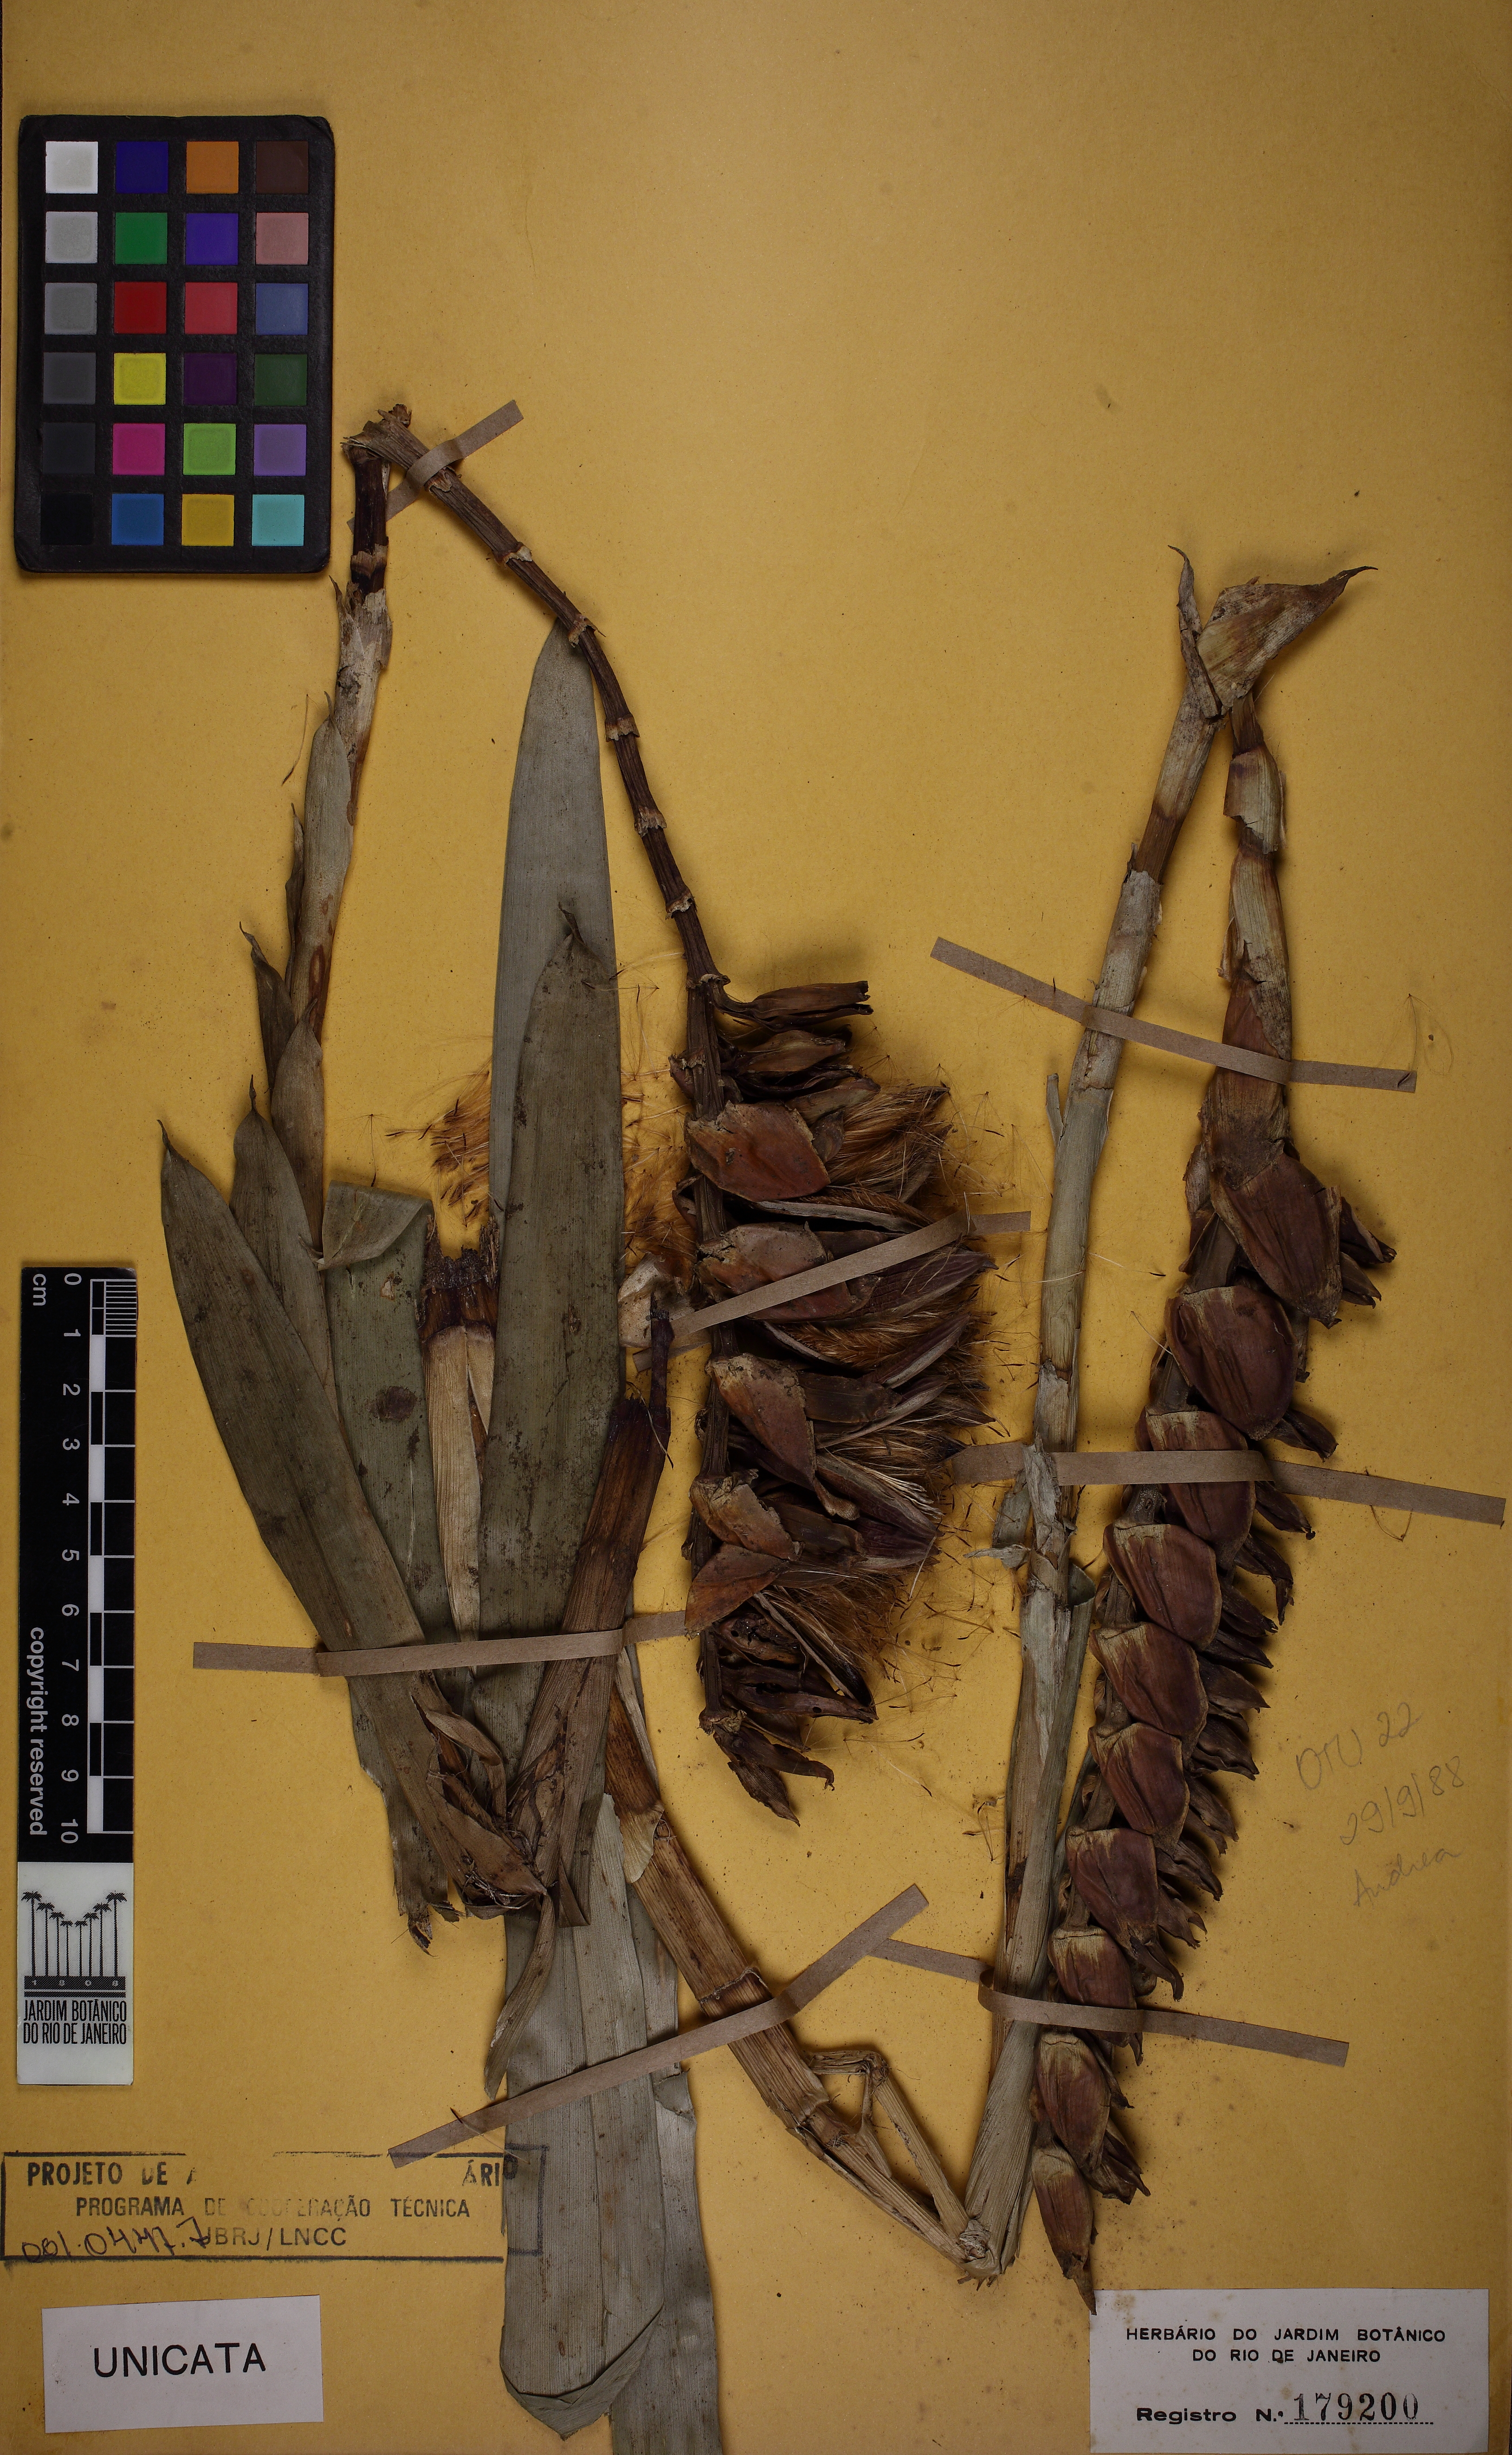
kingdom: Plantae
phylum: Tracheophyta
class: Liliopsida
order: Poales
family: Bromeliaceae
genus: Vriesea
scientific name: Vriesea longicaulis
